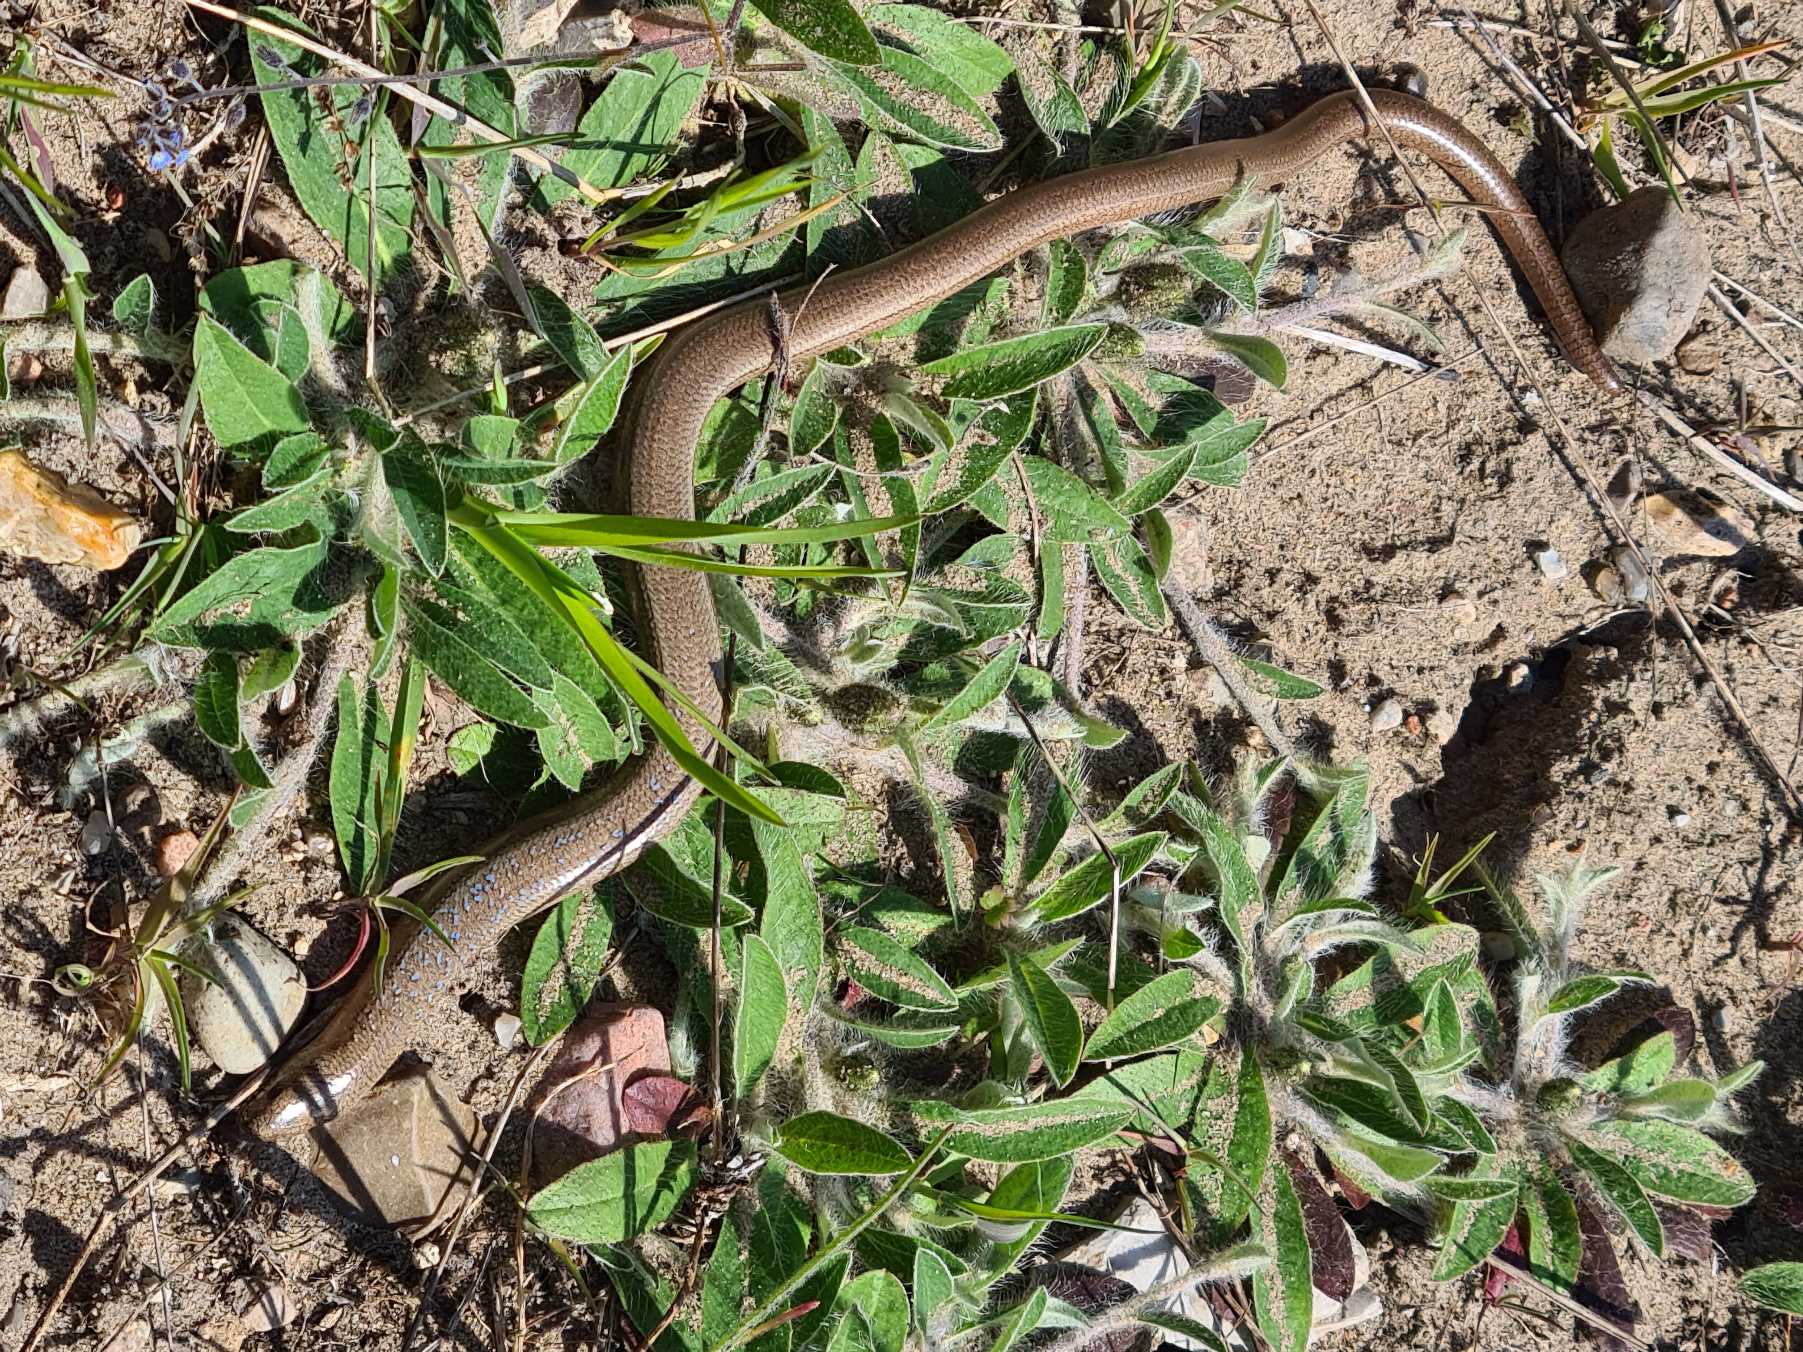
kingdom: Animalia
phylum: Chordata
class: Squamata
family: Anguidae
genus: Anguis
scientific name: Anguis fragilis
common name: Stålorm
